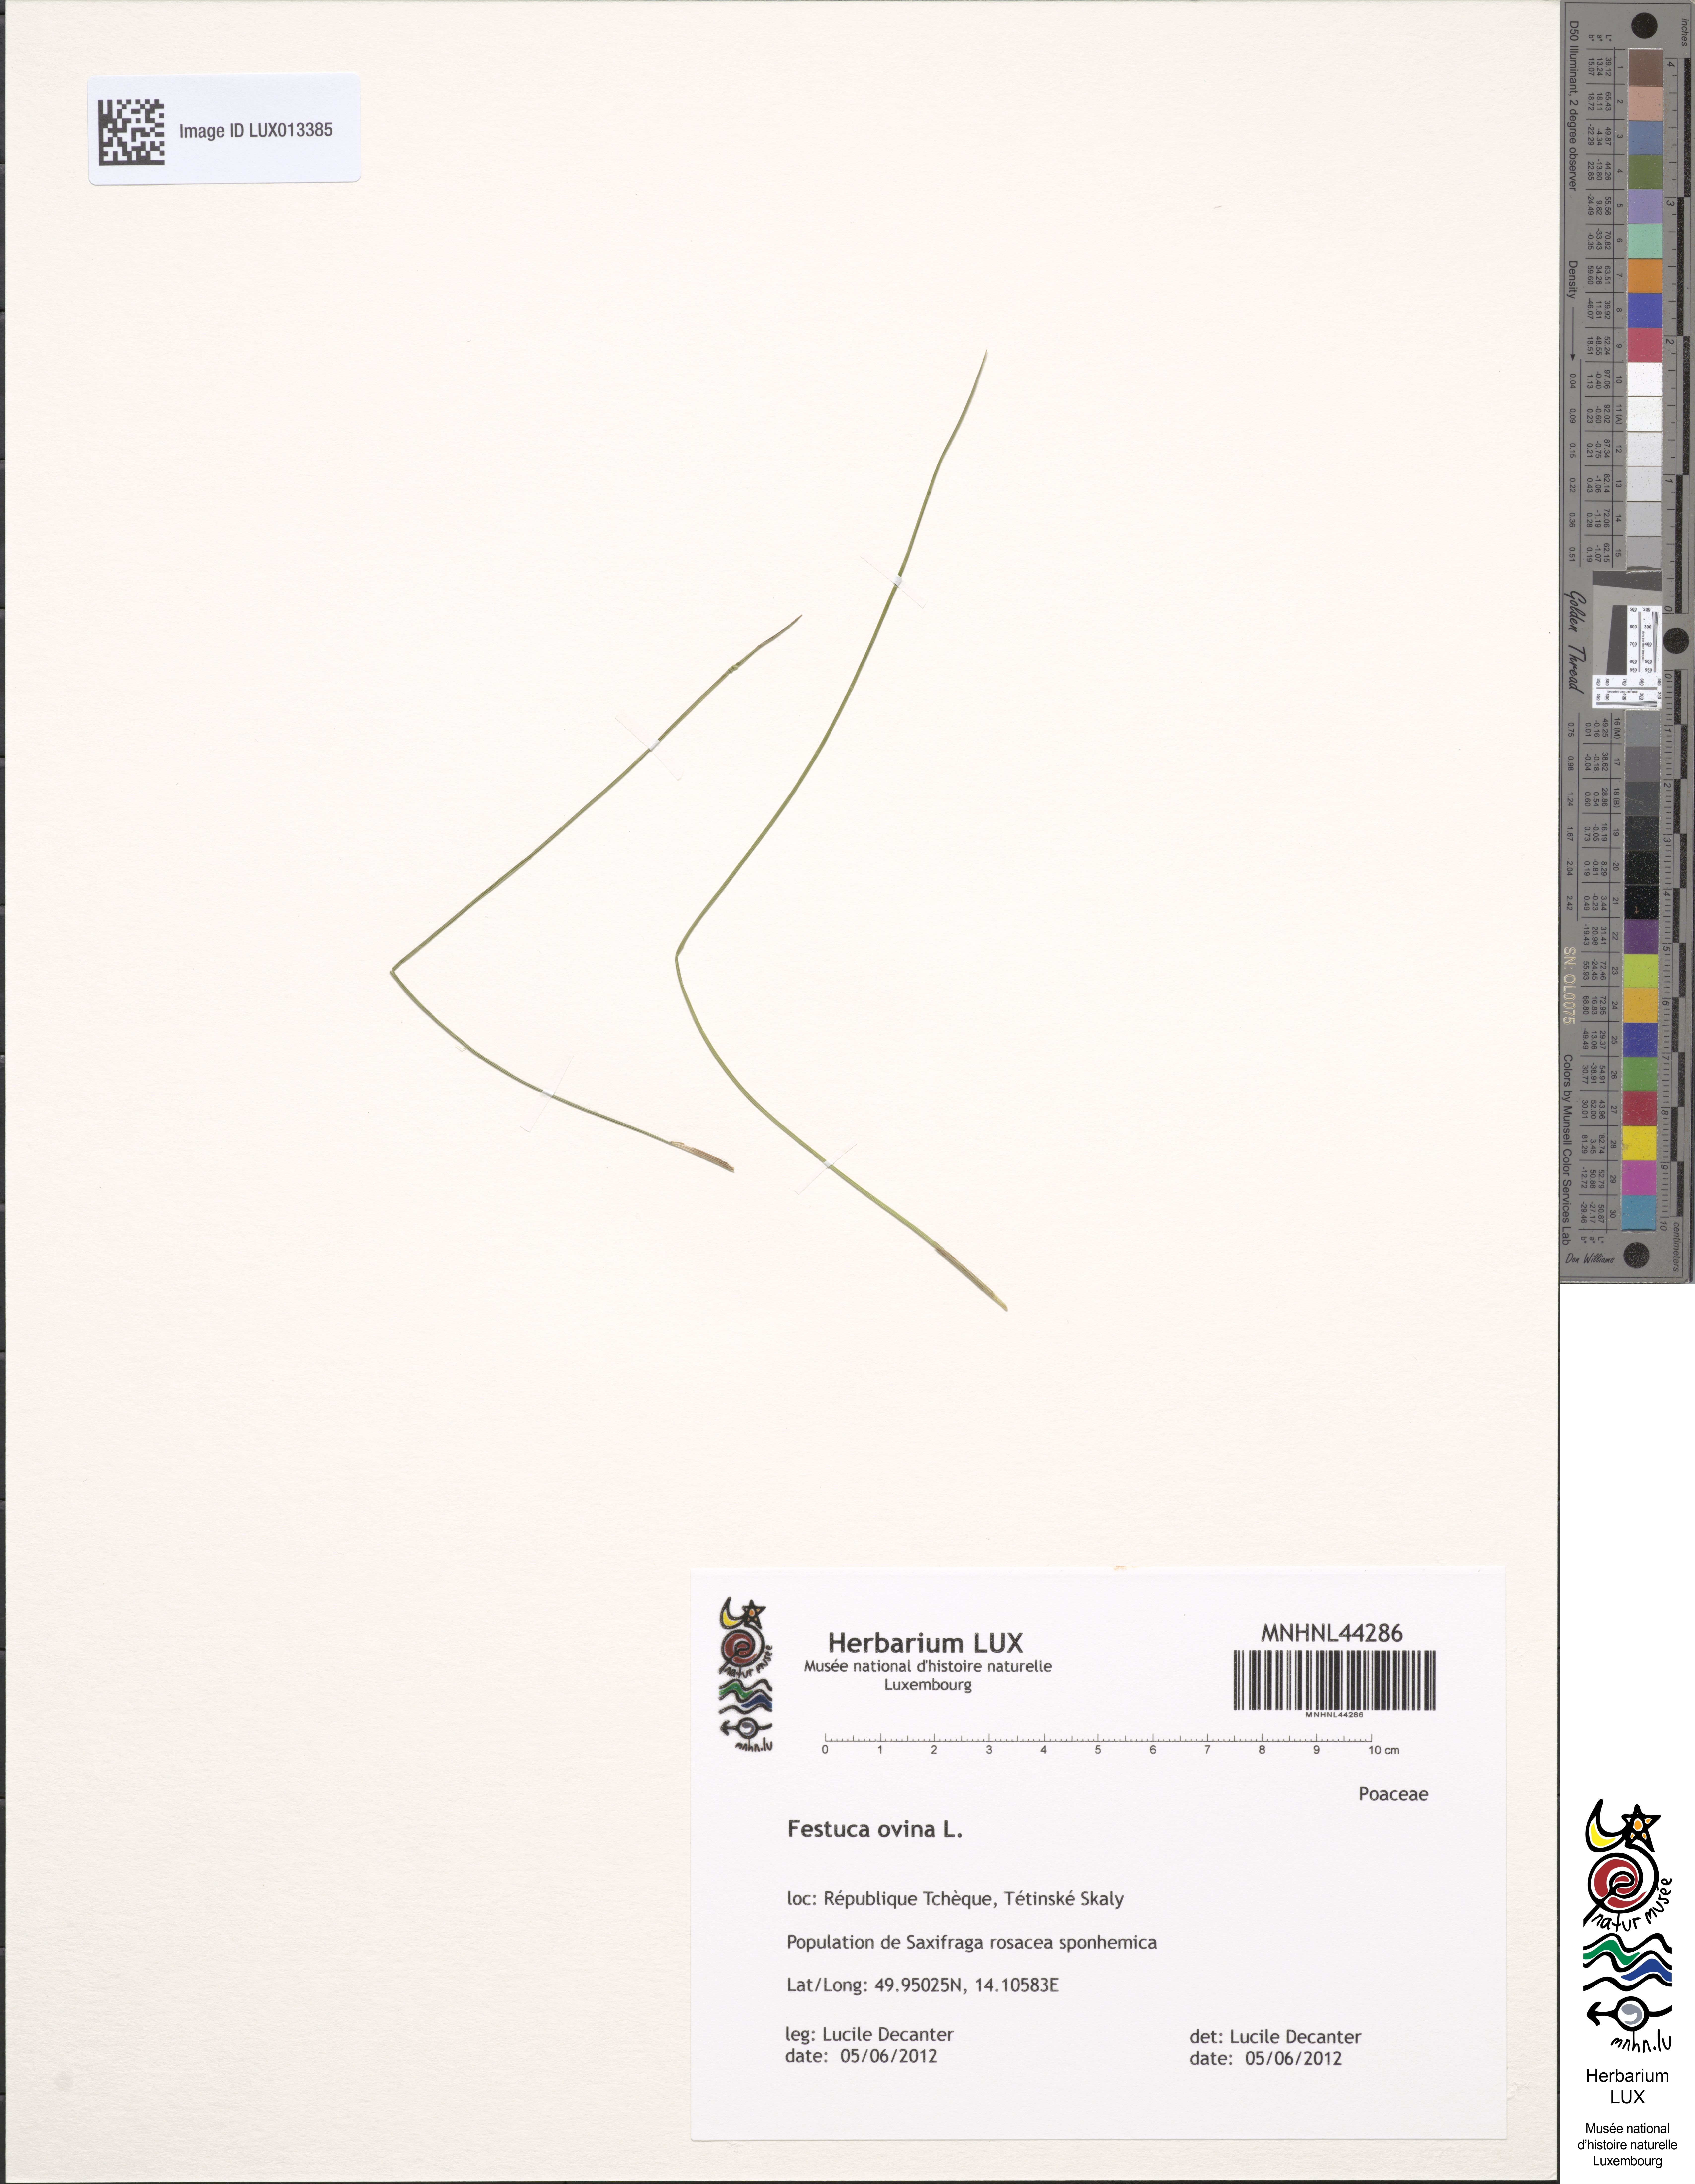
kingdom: Plantae
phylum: Tracheophyta
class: Liliopsida
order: Poales
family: Poaceae
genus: Festuca
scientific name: Festuca ovina
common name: Sheep fescue
